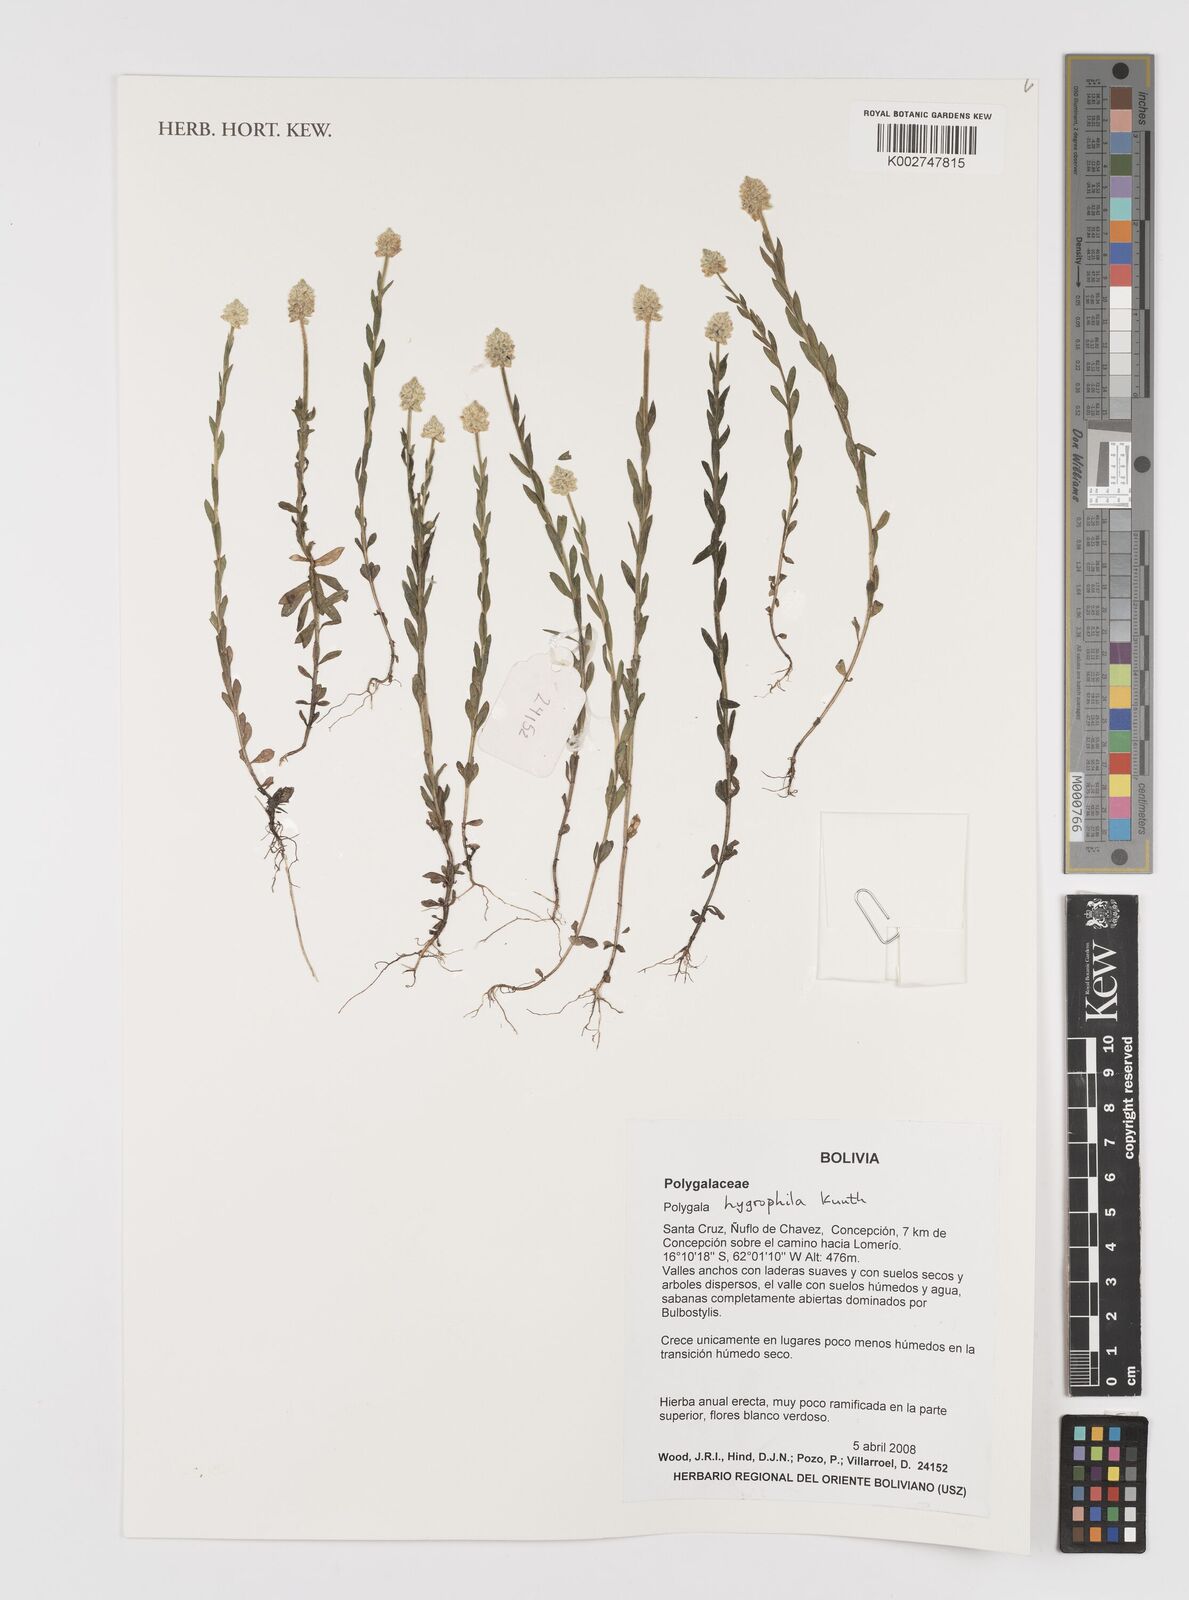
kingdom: Plantae
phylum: Tracheophyta
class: Magnoliopsida
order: Fabales
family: Polygalaceae
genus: Polygala
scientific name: Polygala hygrophila
